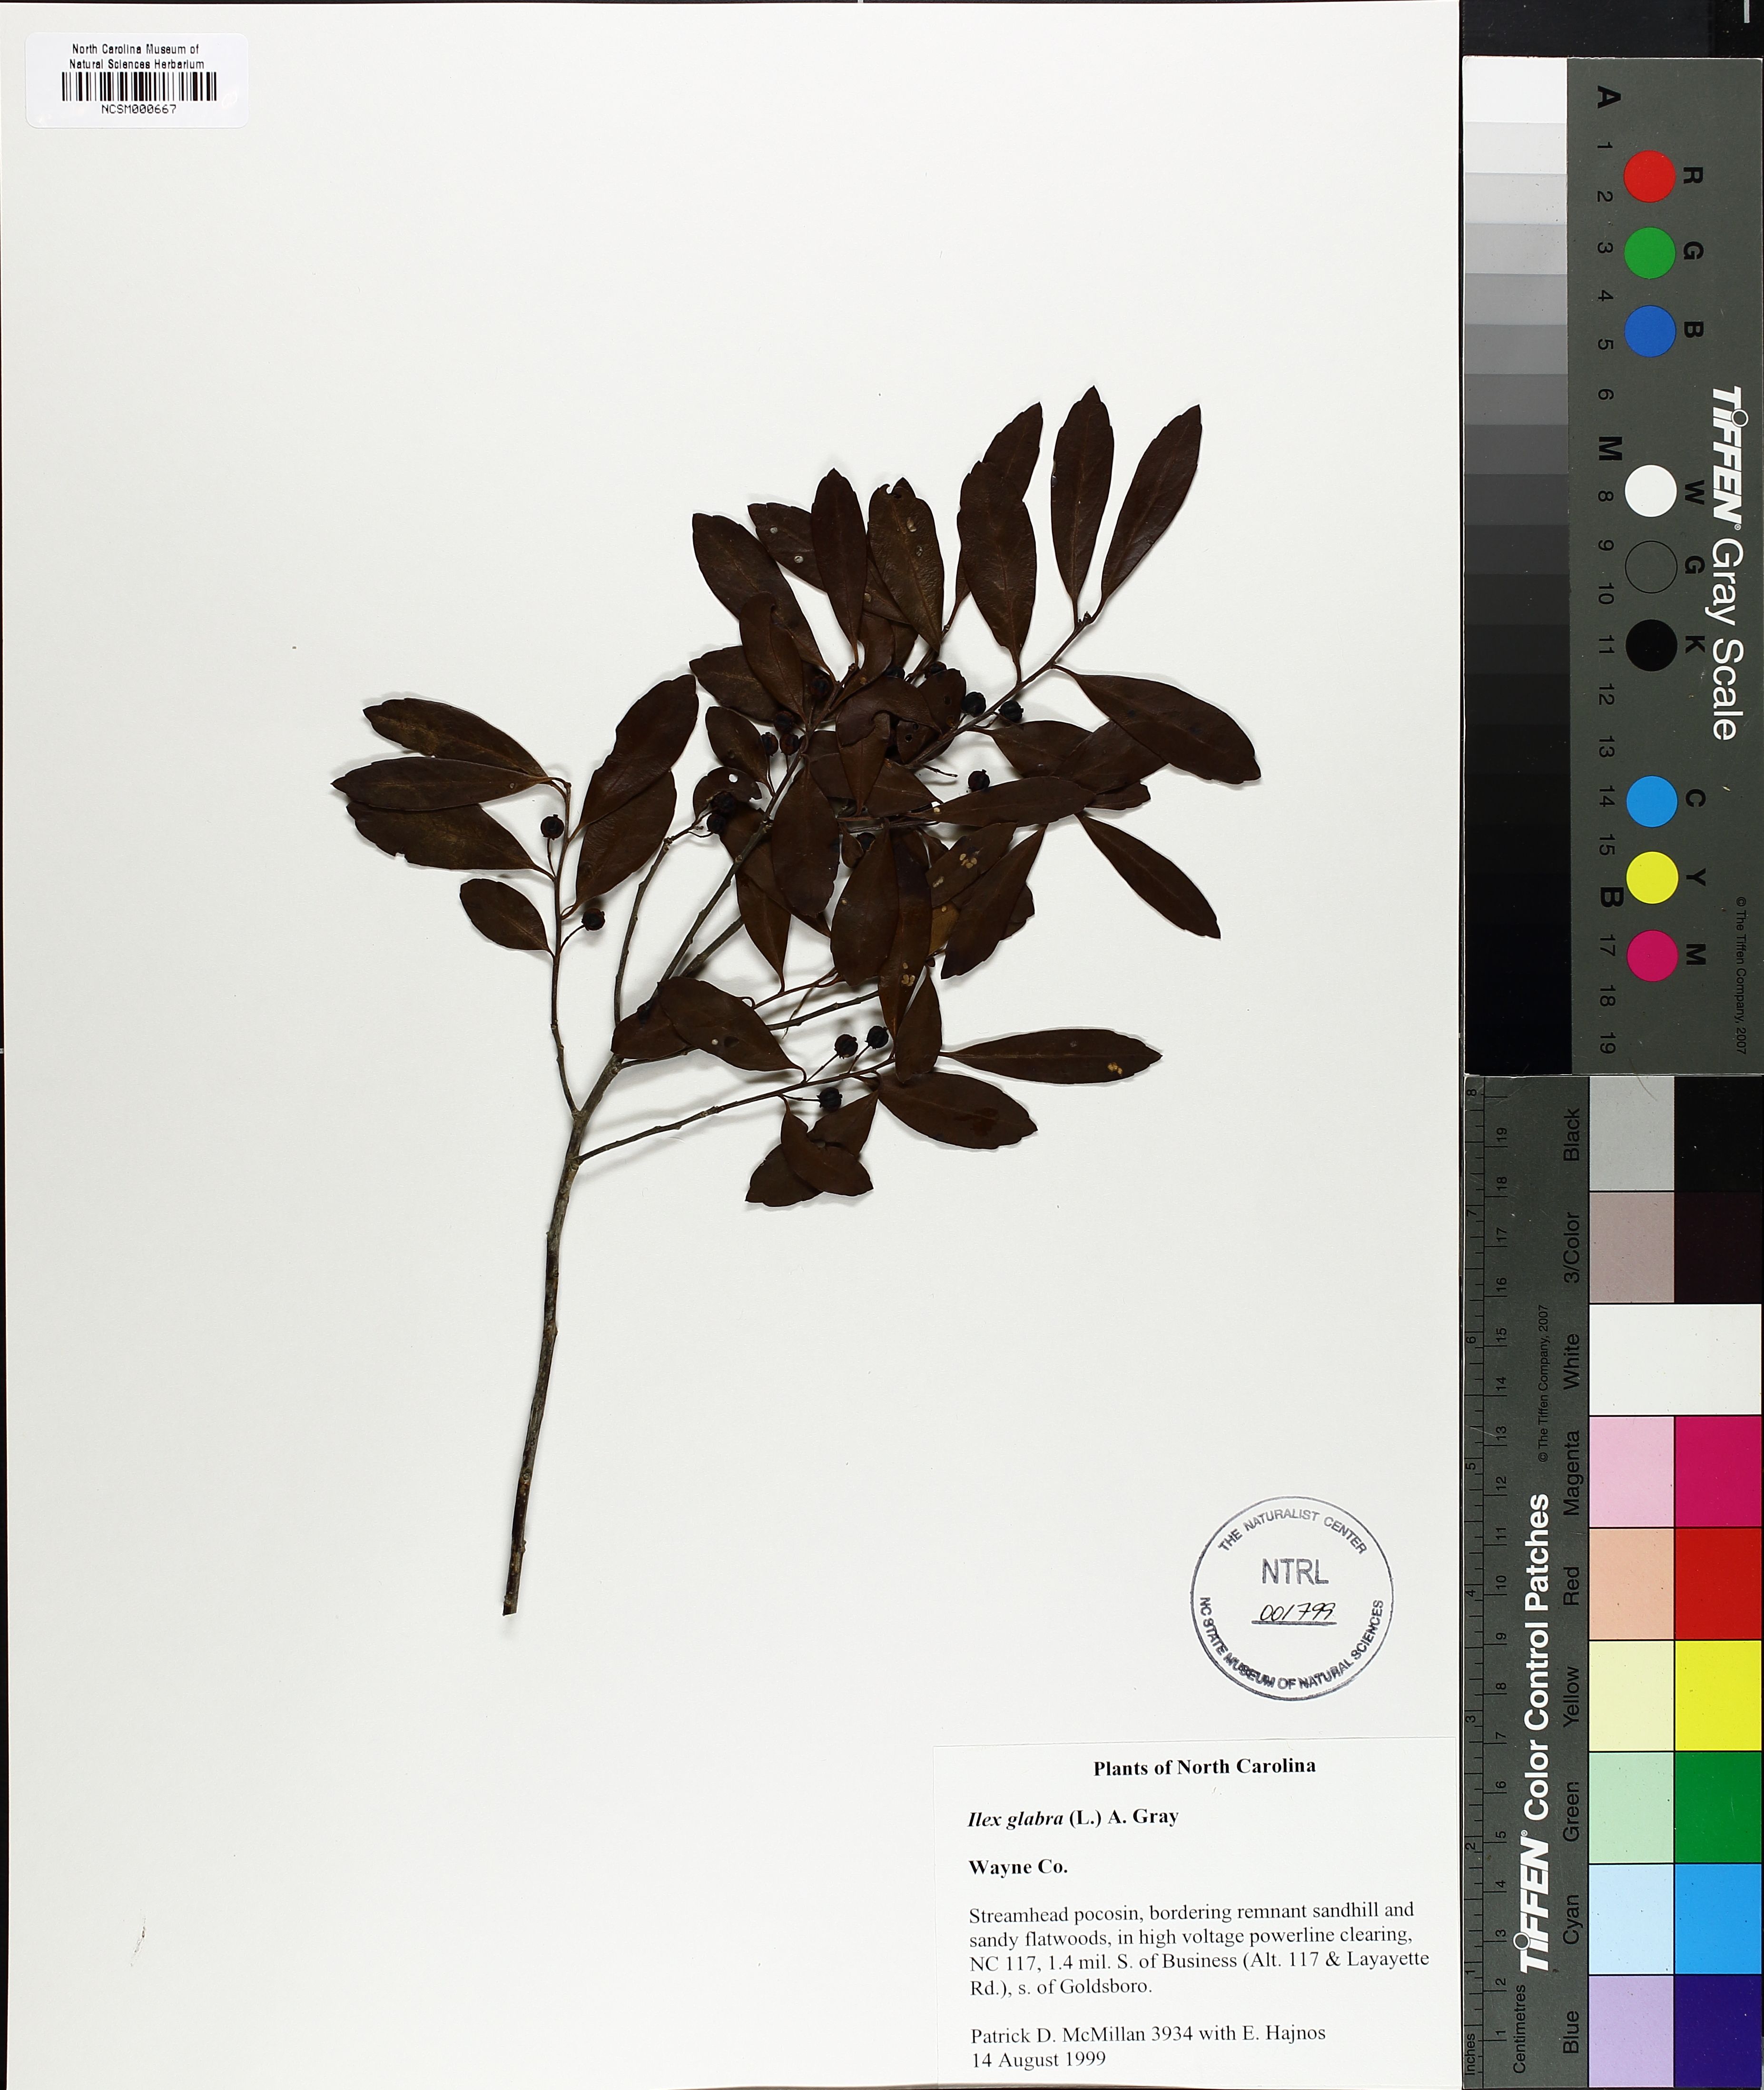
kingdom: Plantae
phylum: Tracheophyta
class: Magnoliopsida
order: Aquifoliales
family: Aquifoliaceae
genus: Ilex
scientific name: Ilex glabra
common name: Bitter gallberry
